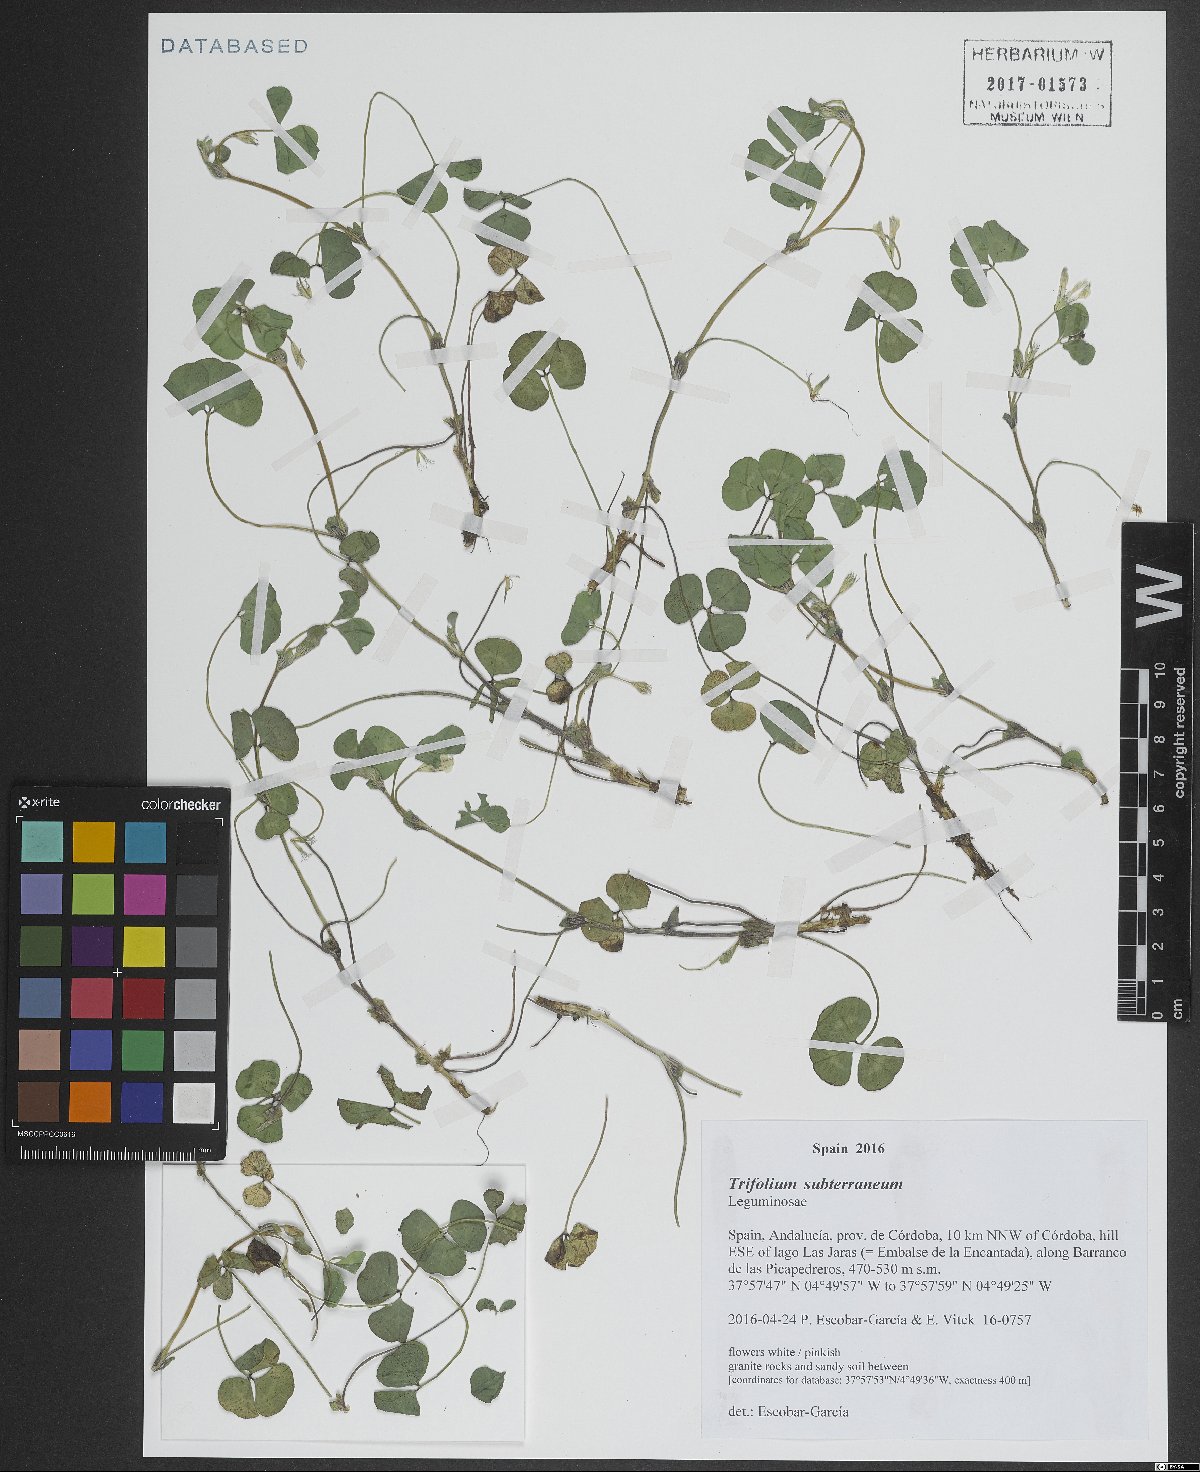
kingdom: Plantae
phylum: Tracheophyta
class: Magnoliopsida
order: Fabales
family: Fabaceae
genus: Trifolium
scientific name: Trifolium subterraneum
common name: Subterranean clover
